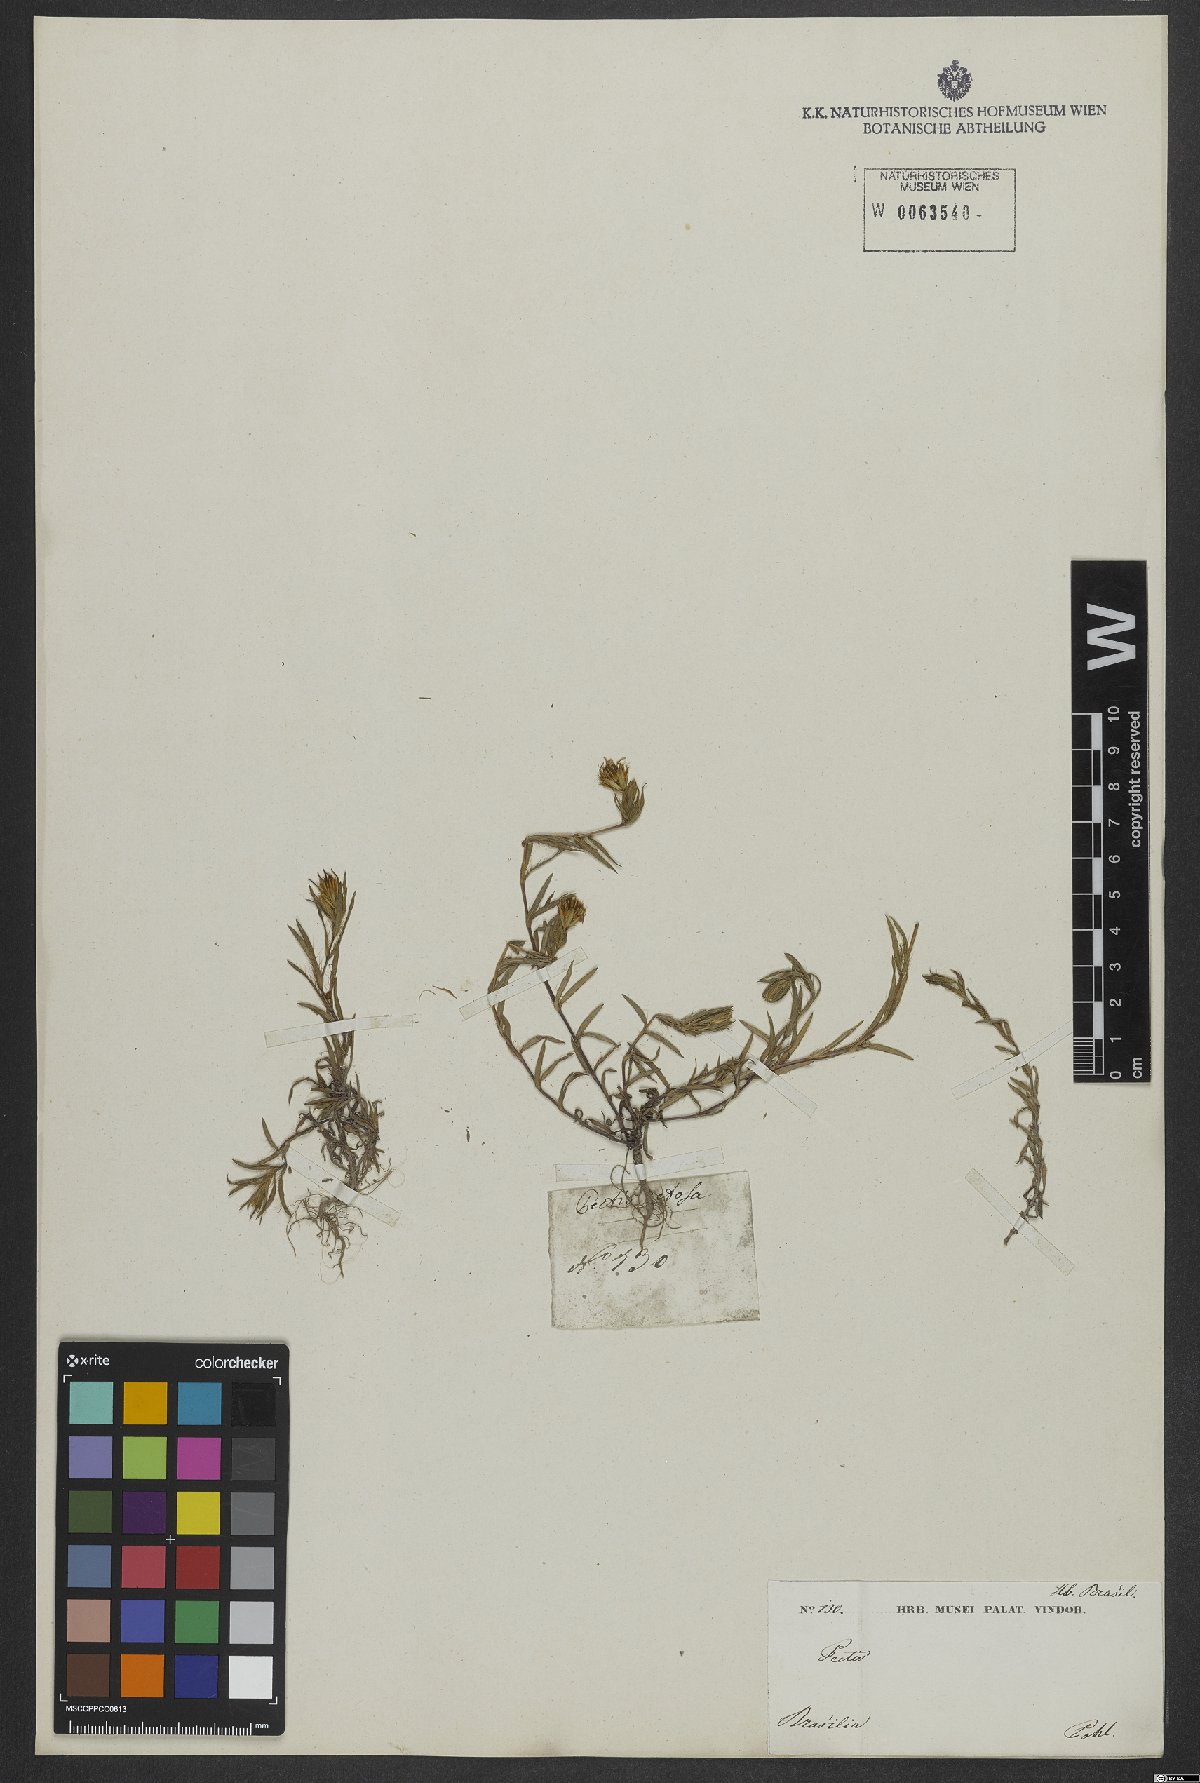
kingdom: Plantae
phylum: Tracheophyta
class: Magnoliopsida
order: Asterales
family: Asteraceae
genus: Pectis
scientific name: Pectis prostrata
